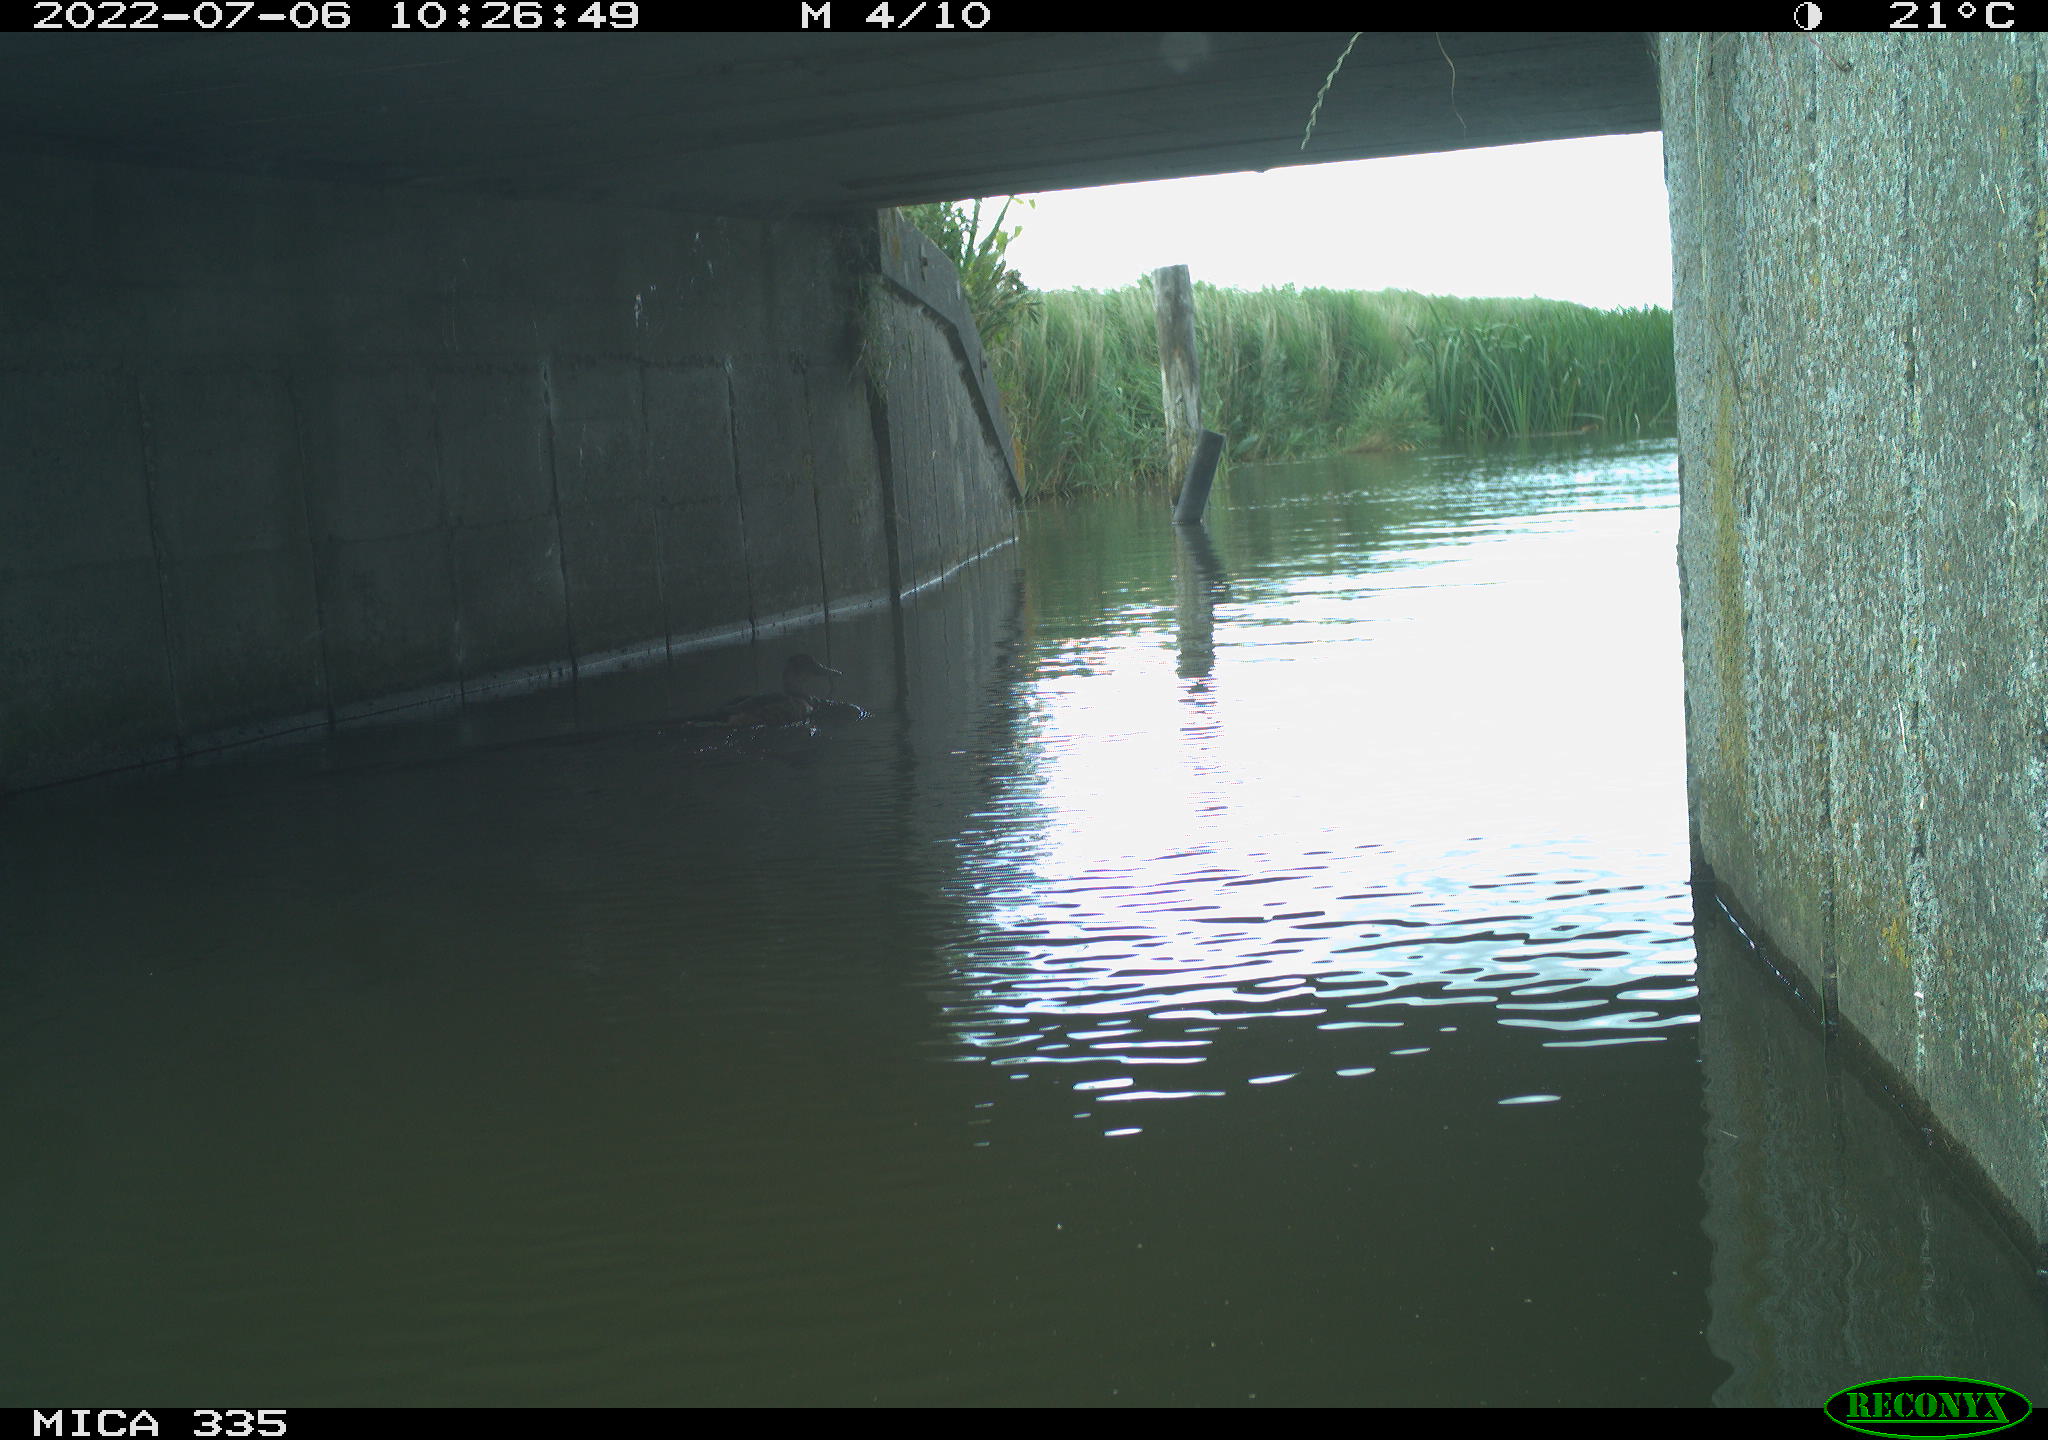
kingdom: Animalia
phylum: Chordata
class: Aves
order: Anseriformes
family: Anatidae
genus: Anas
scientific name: Anas platyrhynchos
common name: Mallard
